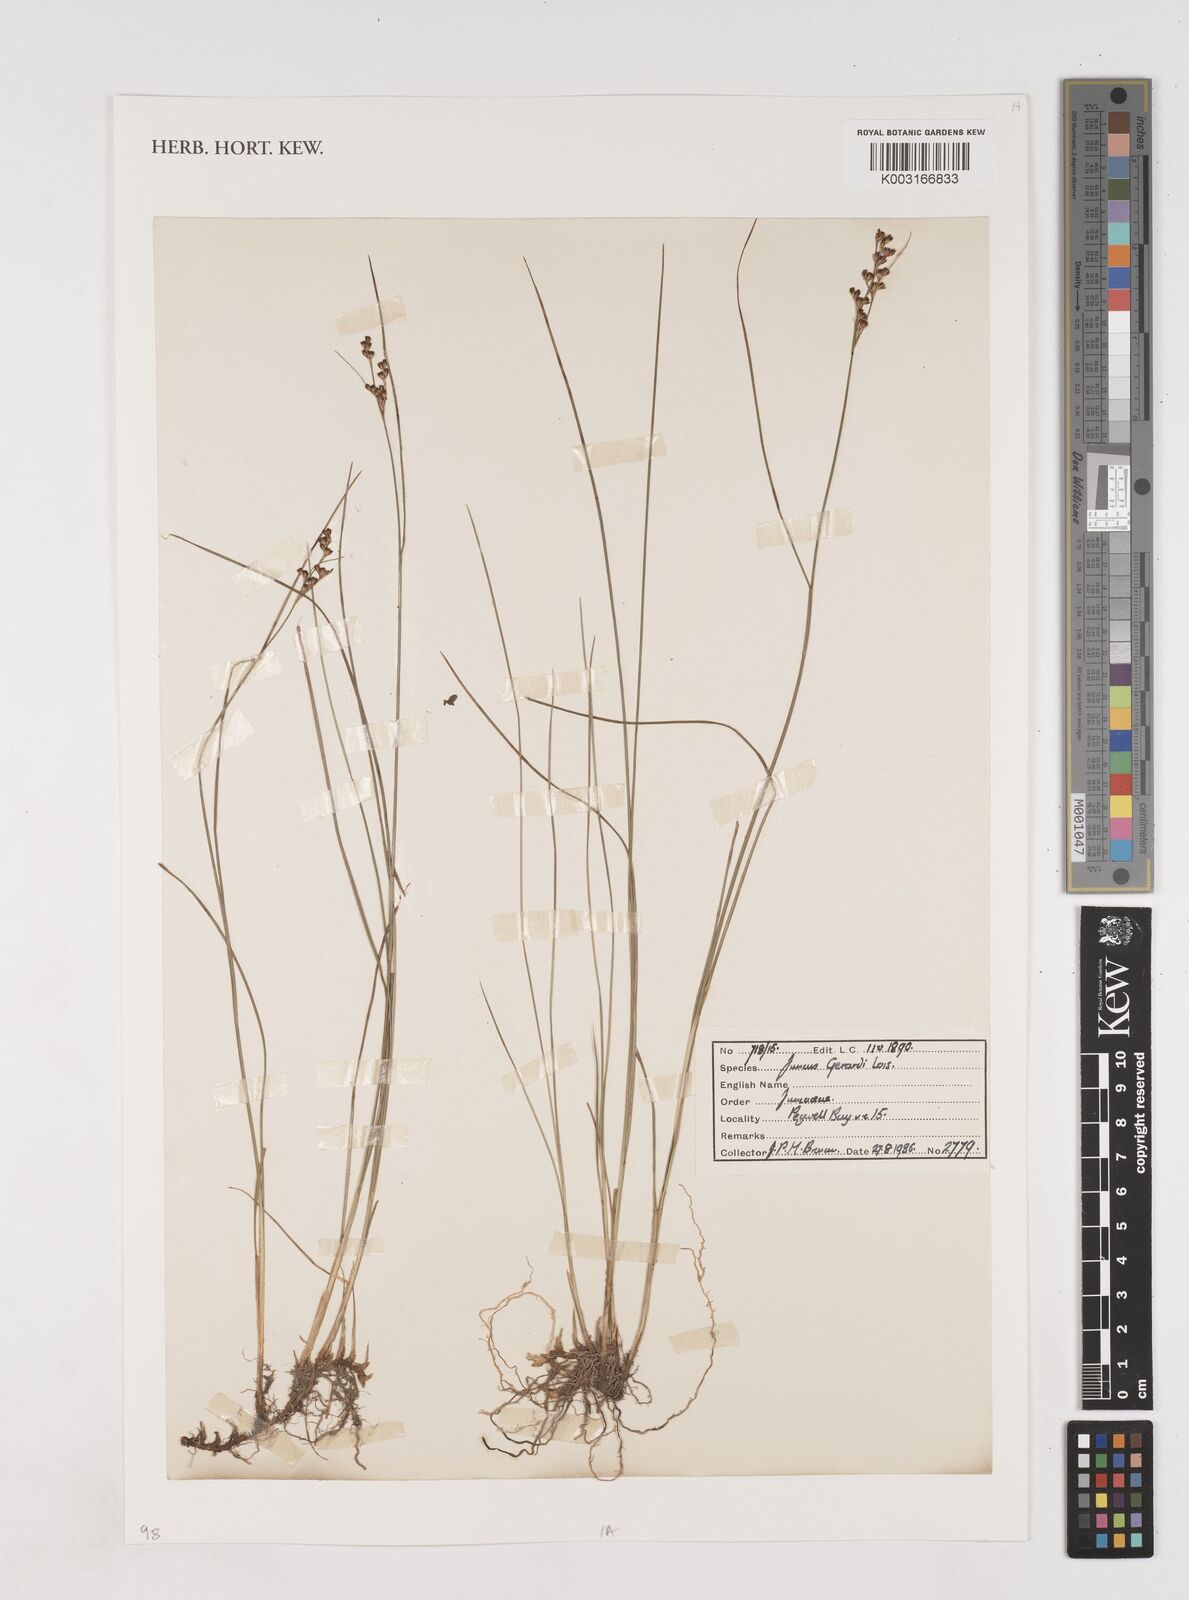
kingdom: Plantae
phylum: Tracheophyta
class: Liliopsida
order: Poales
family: Juncaceae
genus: Juncus
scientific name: Juncus gerardi
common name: Saltmarsh rush
